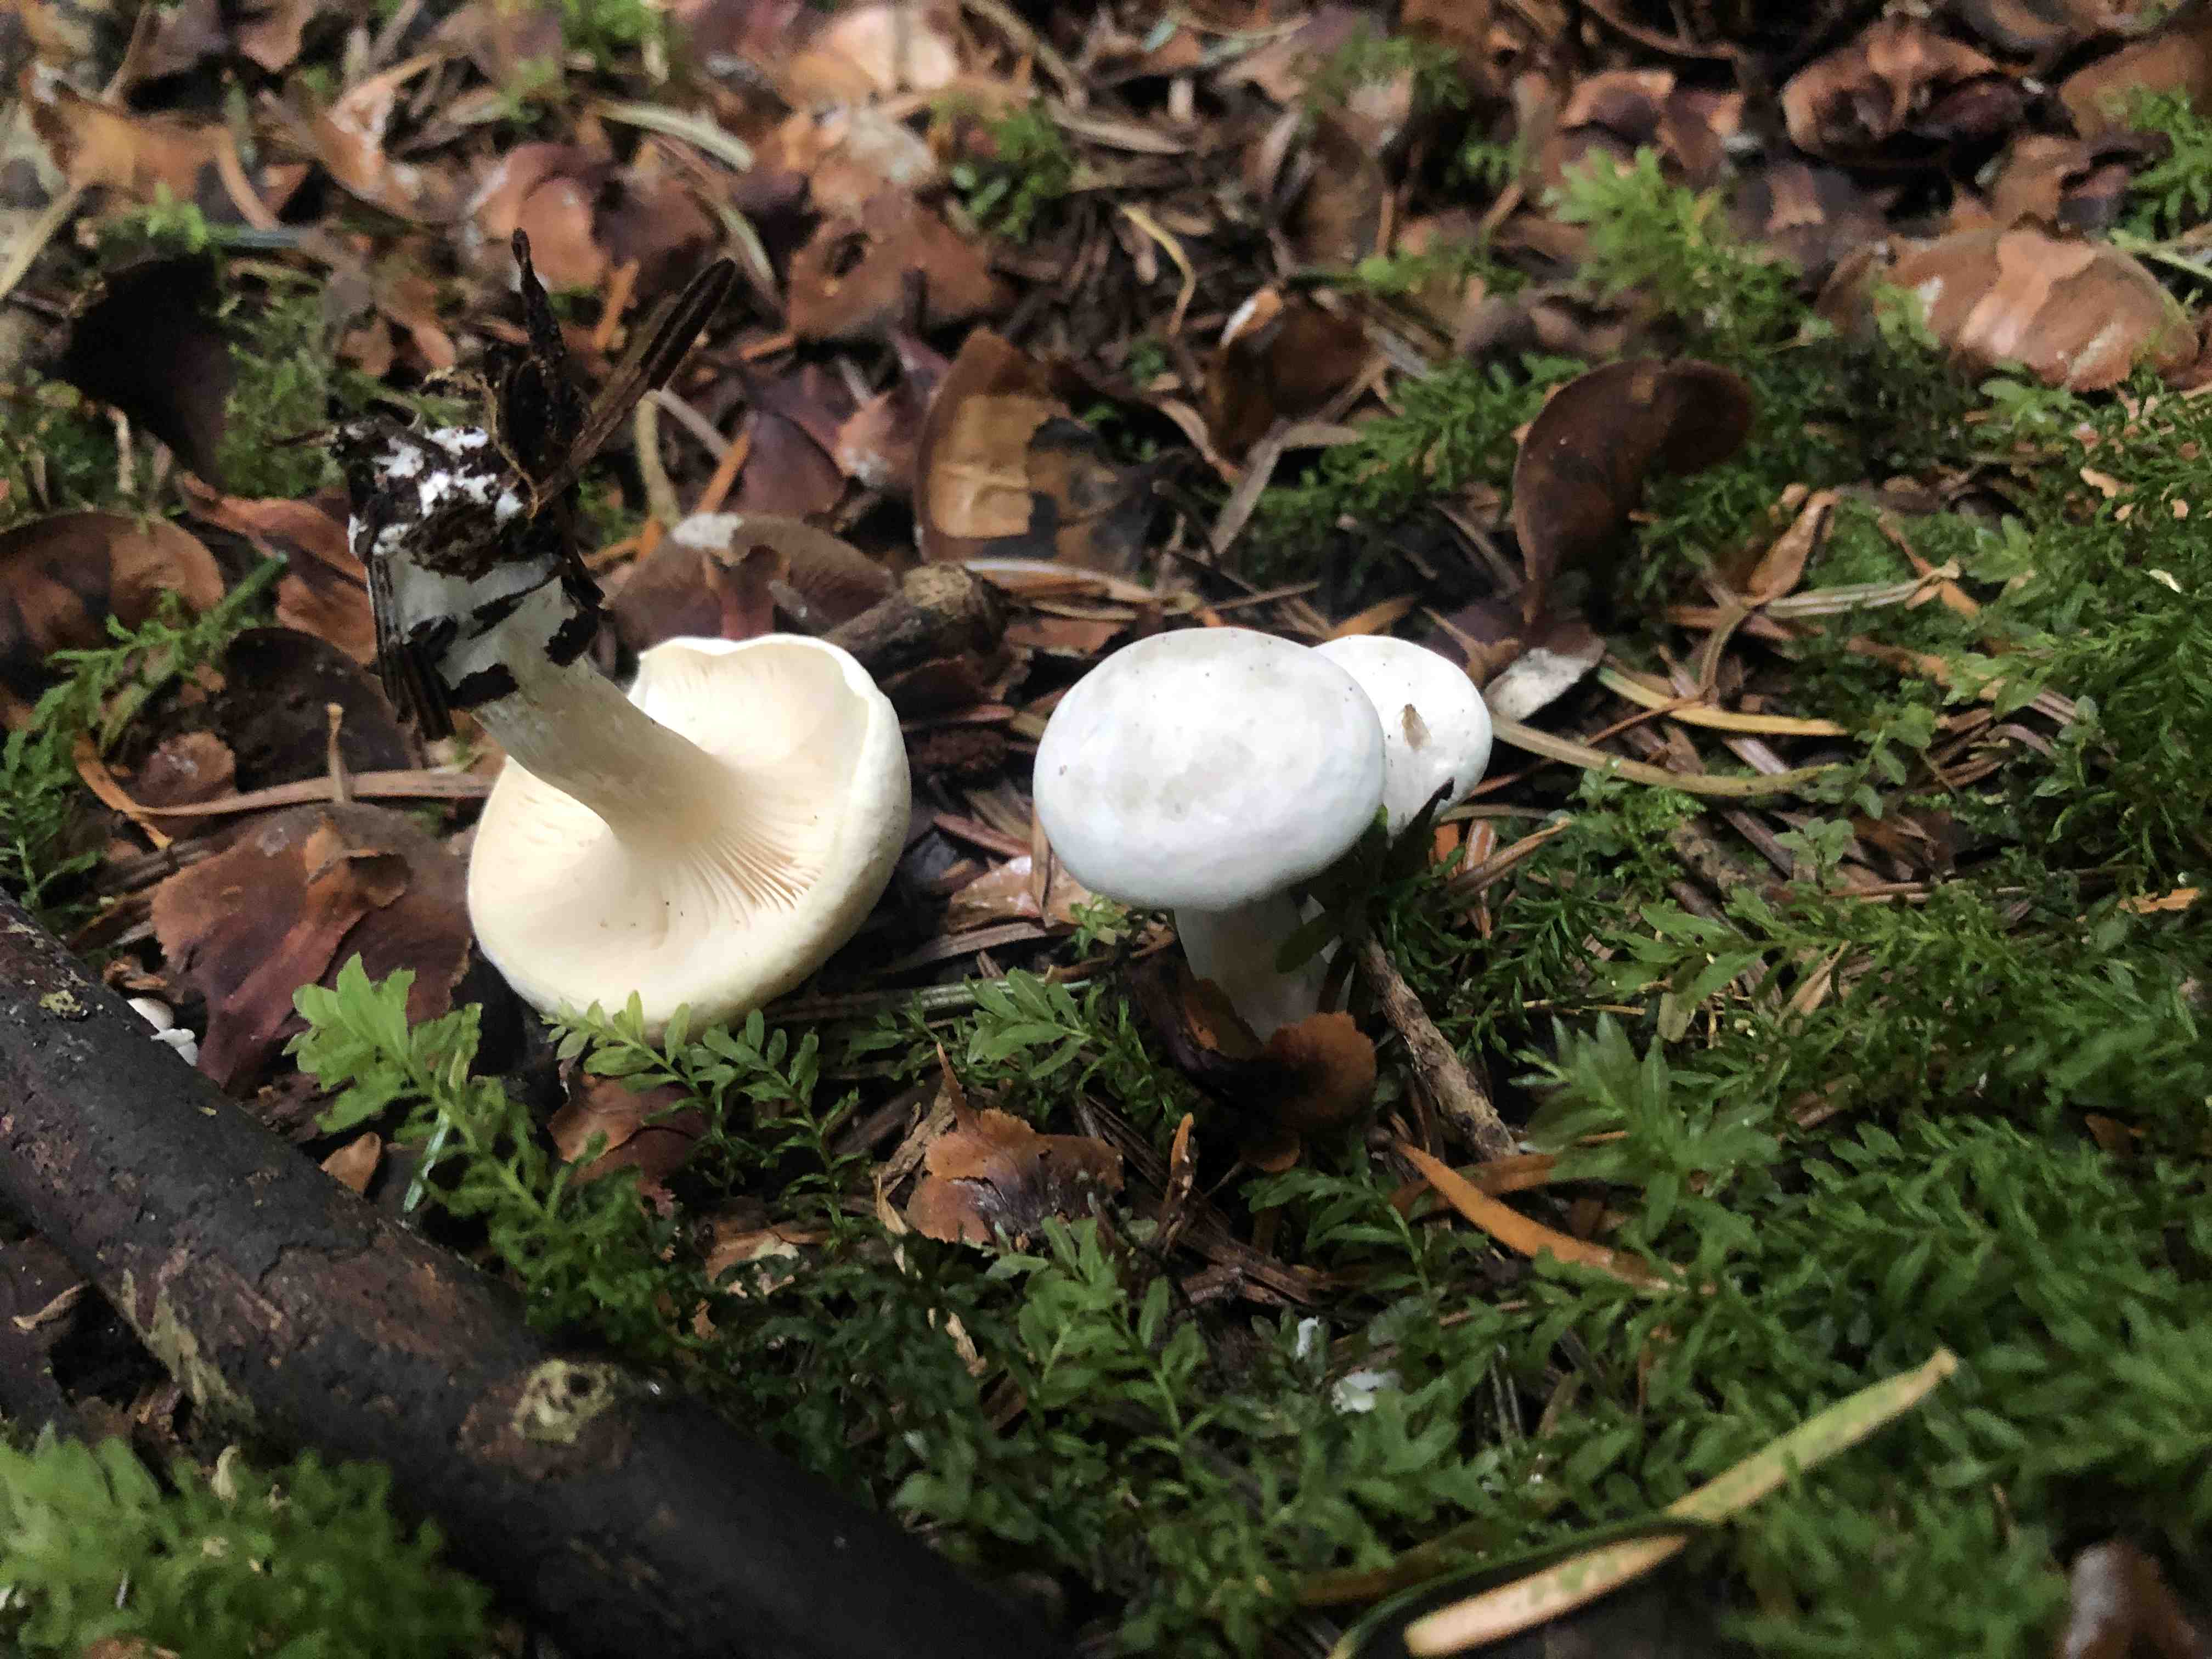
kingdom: Fungi
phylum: Basidiomycota
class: Agaricomycetes
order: Agaricales
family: Entolomataceae
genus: Clitopilus
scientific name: Clitopilus prunulus
